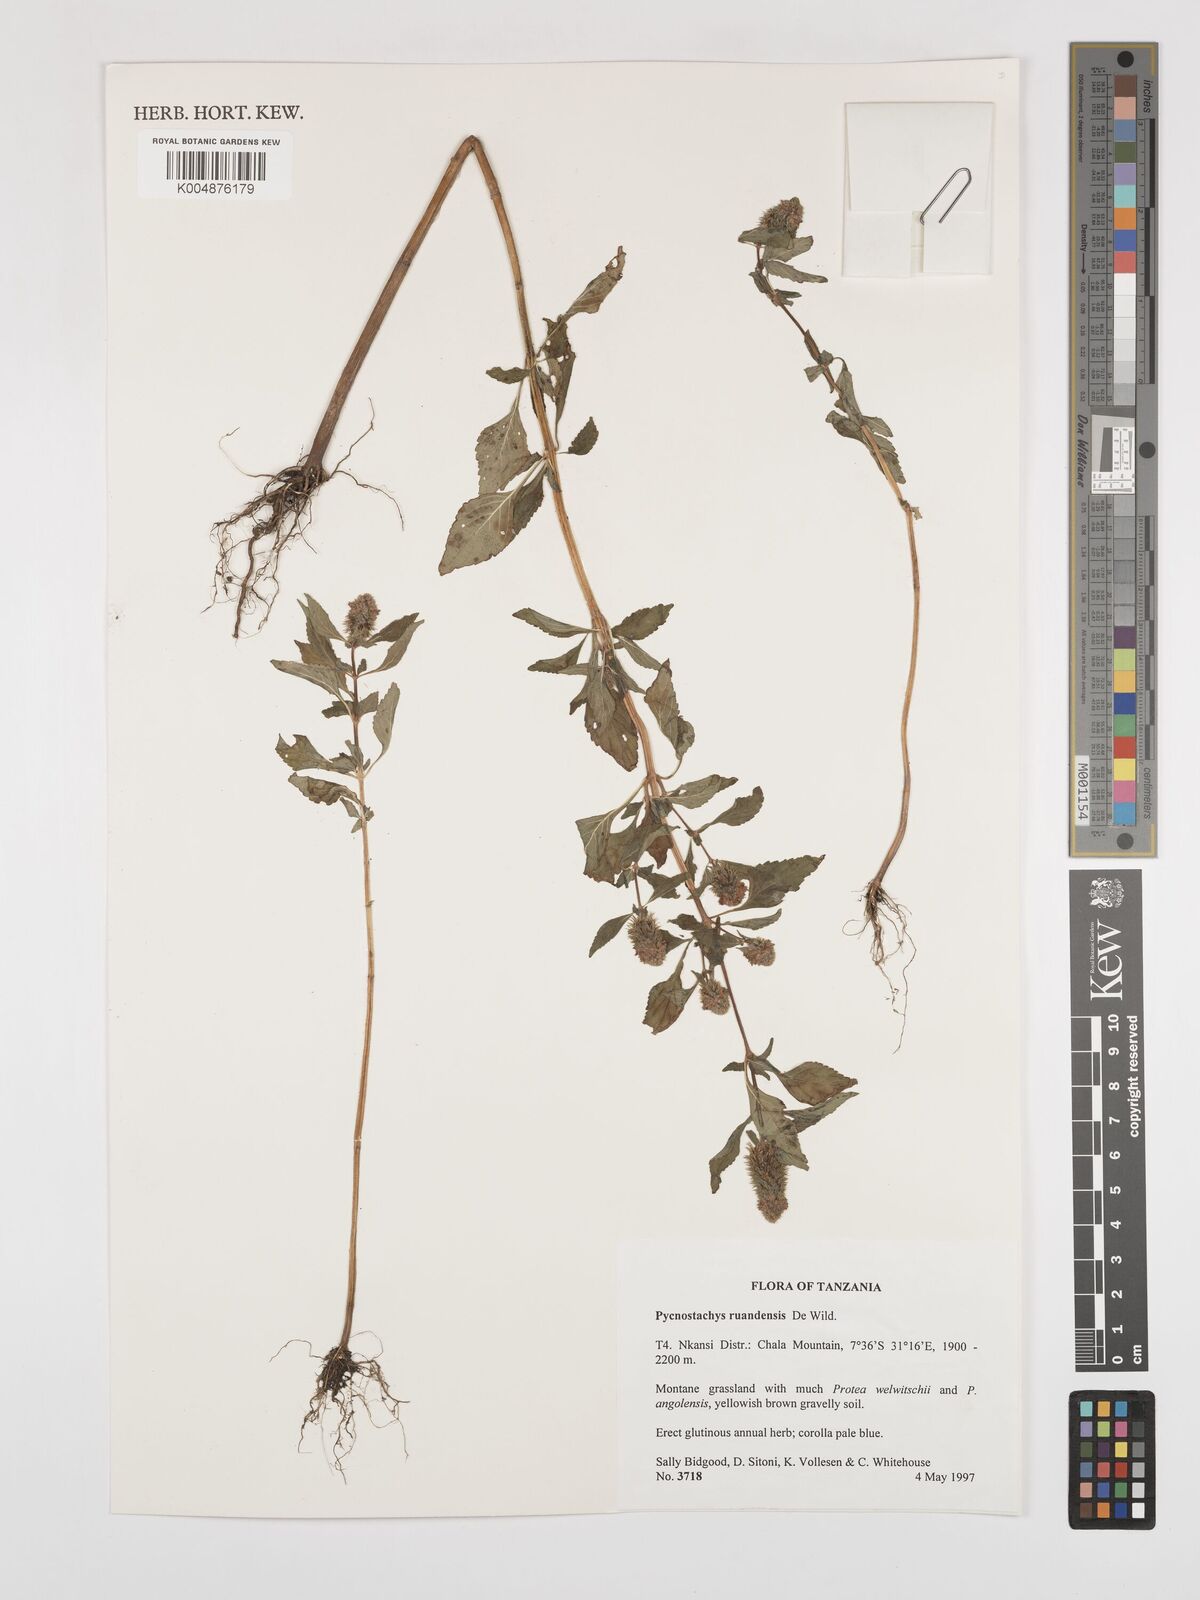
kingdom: Plantae
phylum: Tracheophyta
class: Magnoliopsida
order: Lamiales
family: Lamiaceae
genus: Coleus
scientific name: Coleus ruandensis
